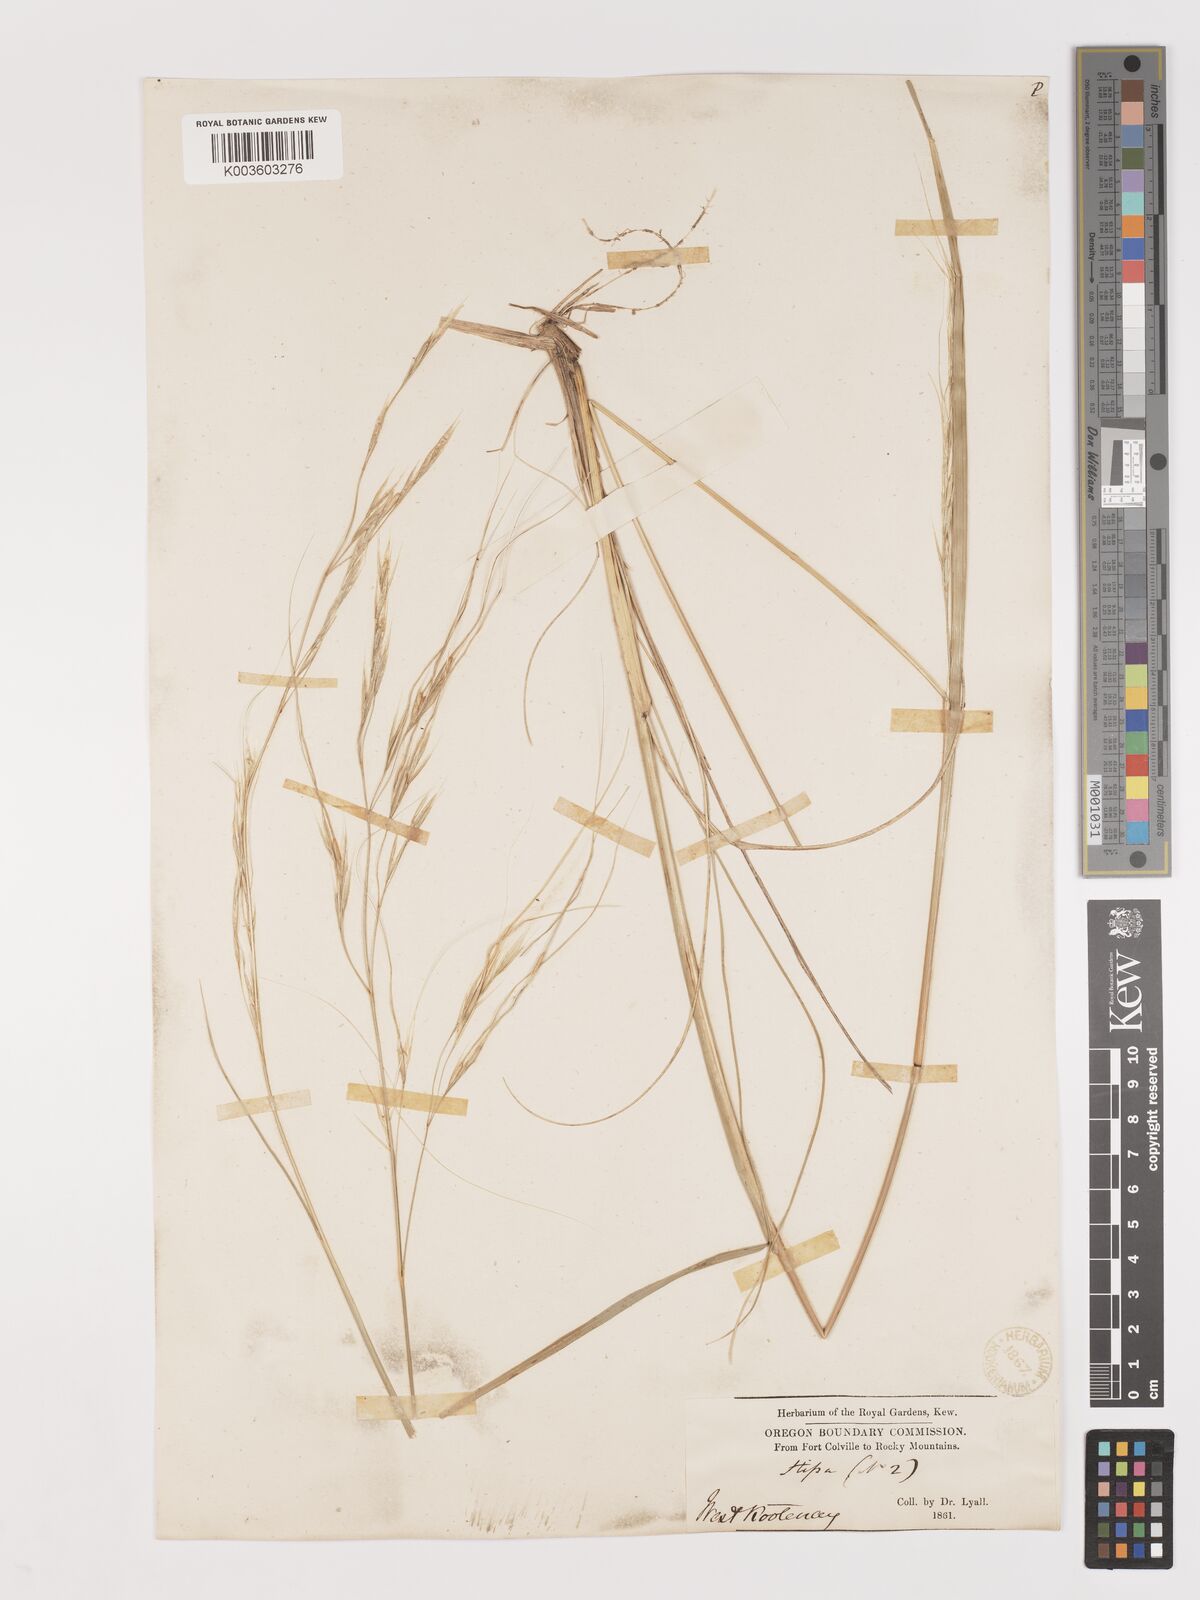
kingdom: Plantae
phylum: Tracheophyta
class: Liliopsida
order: Poales
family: Poaceae
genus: Hesperostipa
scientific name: Hesperostipa spartea
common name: Porcupine grass
